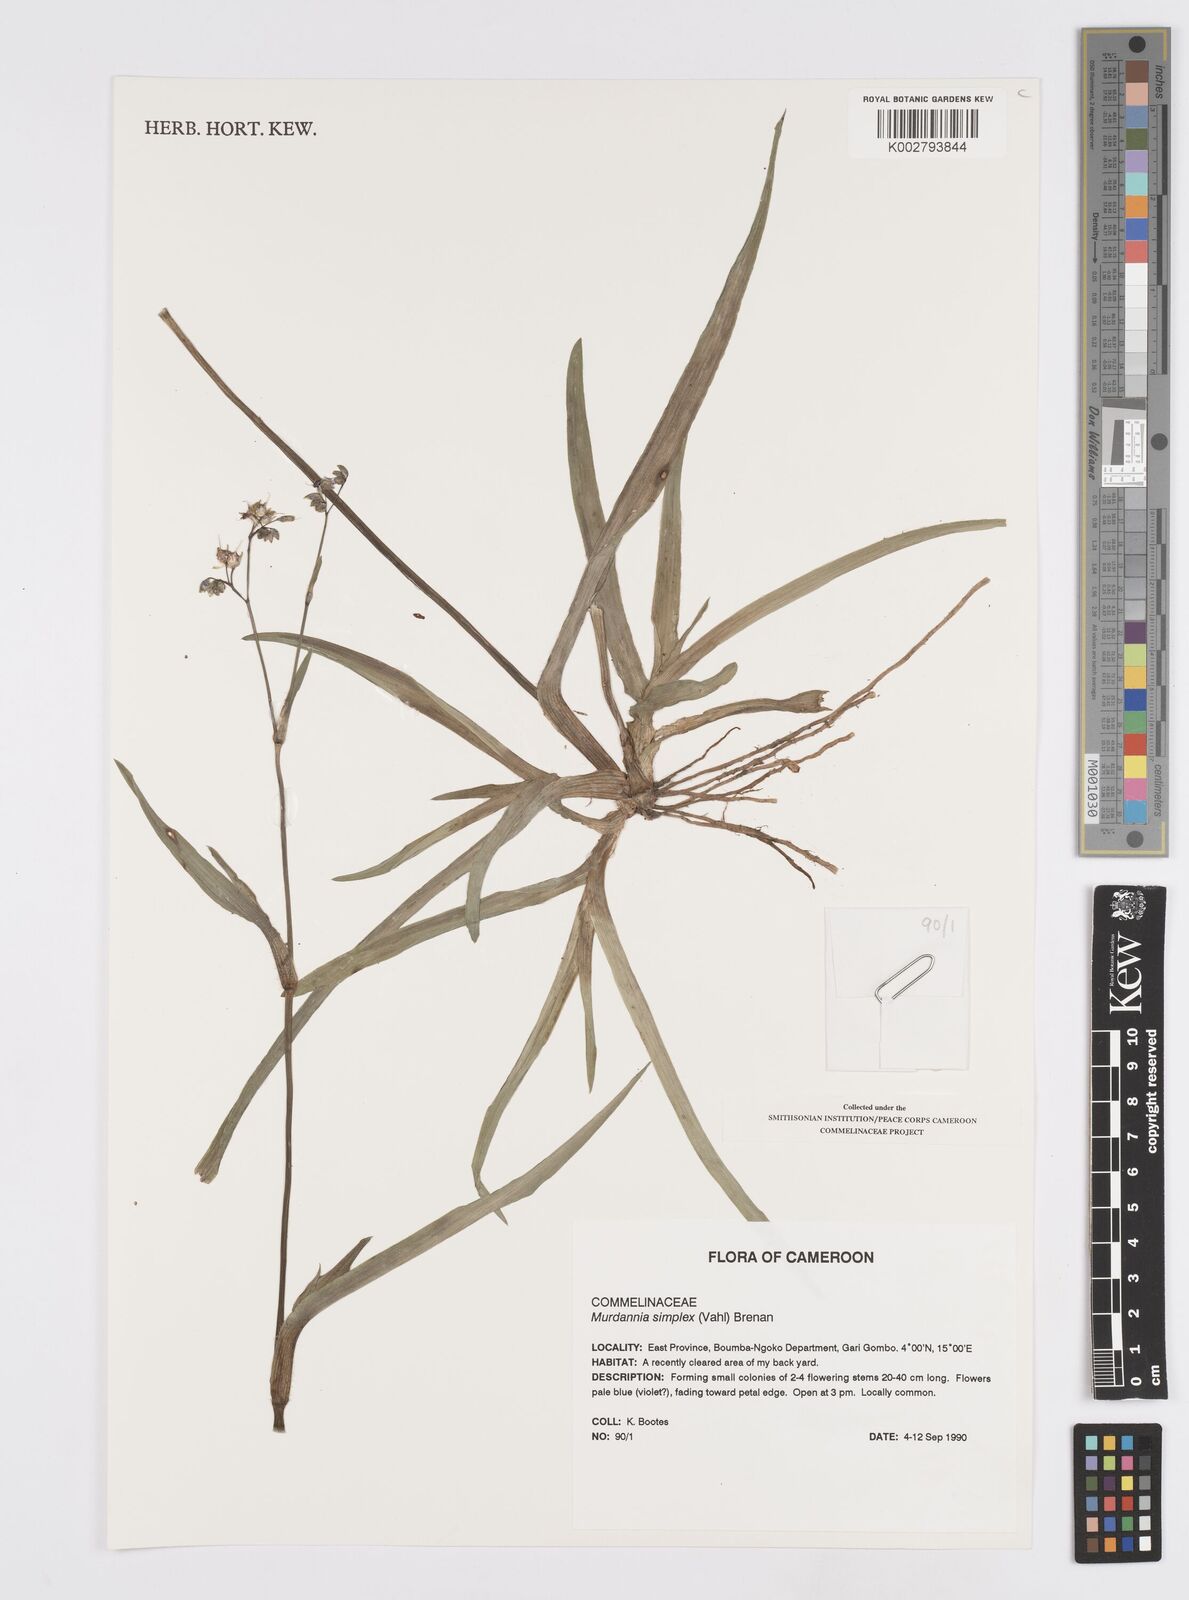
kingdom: Plantae
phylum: Tracheophyta
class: Liliopsida
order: Commelinales
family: Commelinaceae
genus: Murdannia
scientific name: Murdannia simplex
